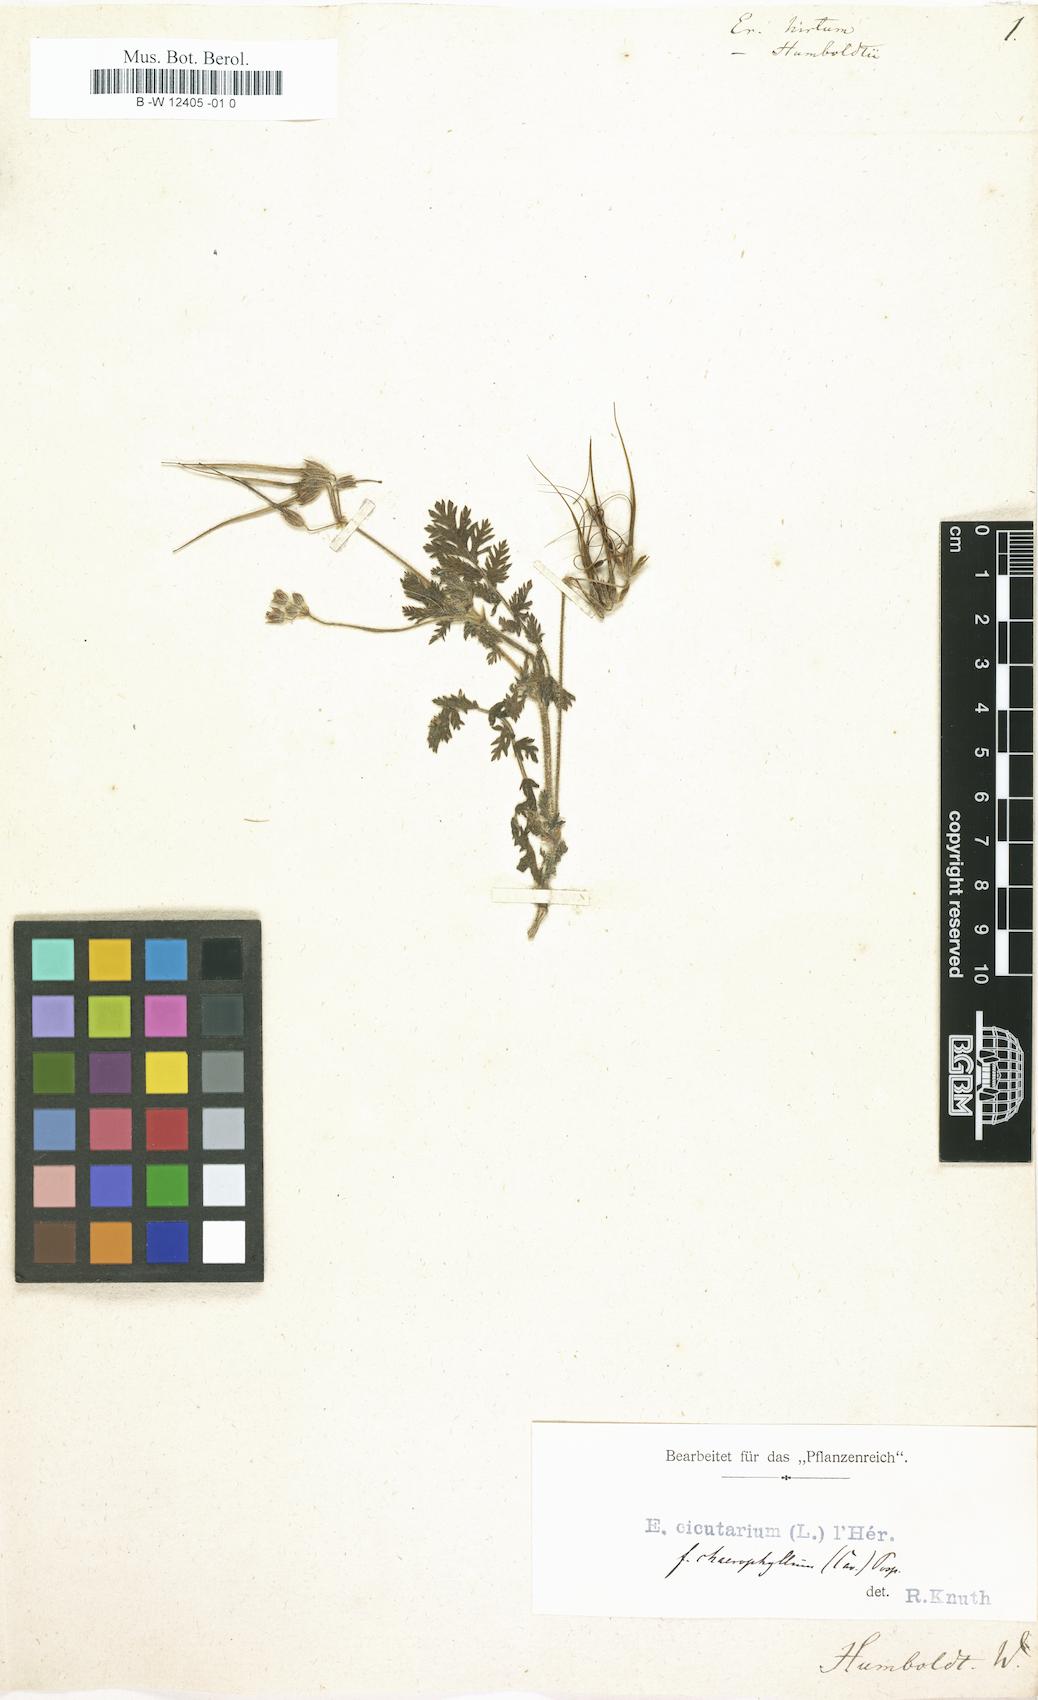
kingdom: Plantae
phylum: Tracheophyta
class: Magnoliopsida
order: Geraniales
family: Geraniaceae
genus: Erodium
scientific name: Erodium crassifolium
